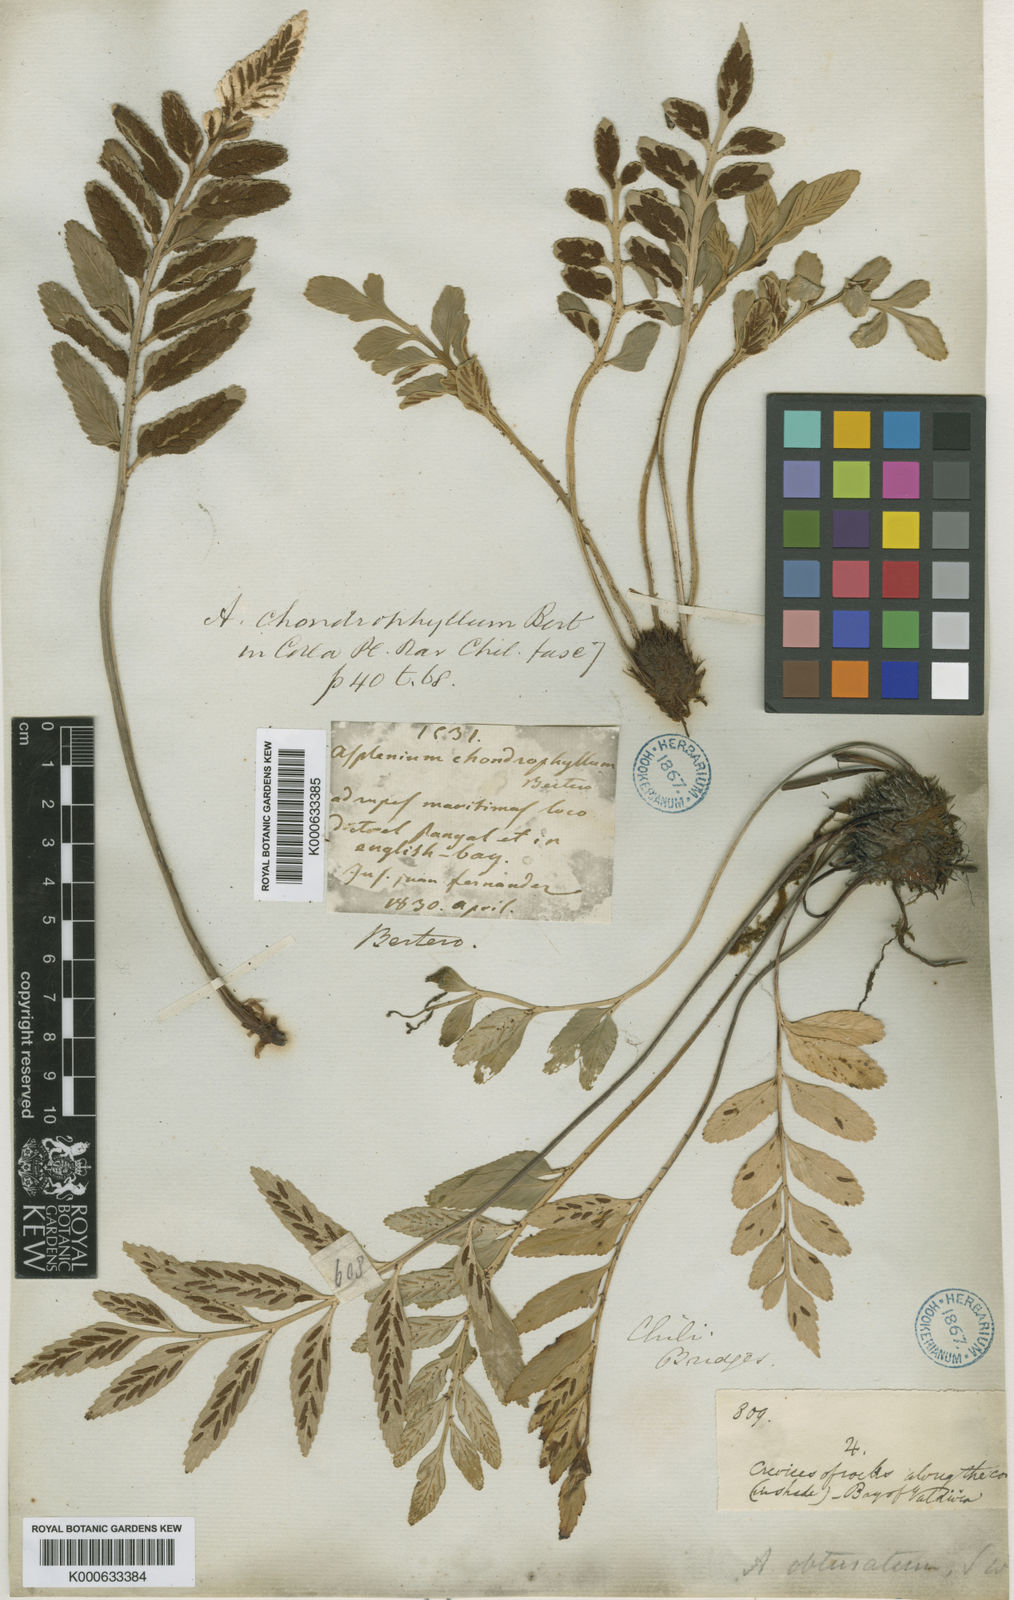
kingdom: Plantae
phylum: Tracheophyta
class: Polypodiopsida
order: Polypodiales
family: Aspleniaceae
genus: Asplenium
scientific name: Asplenium
